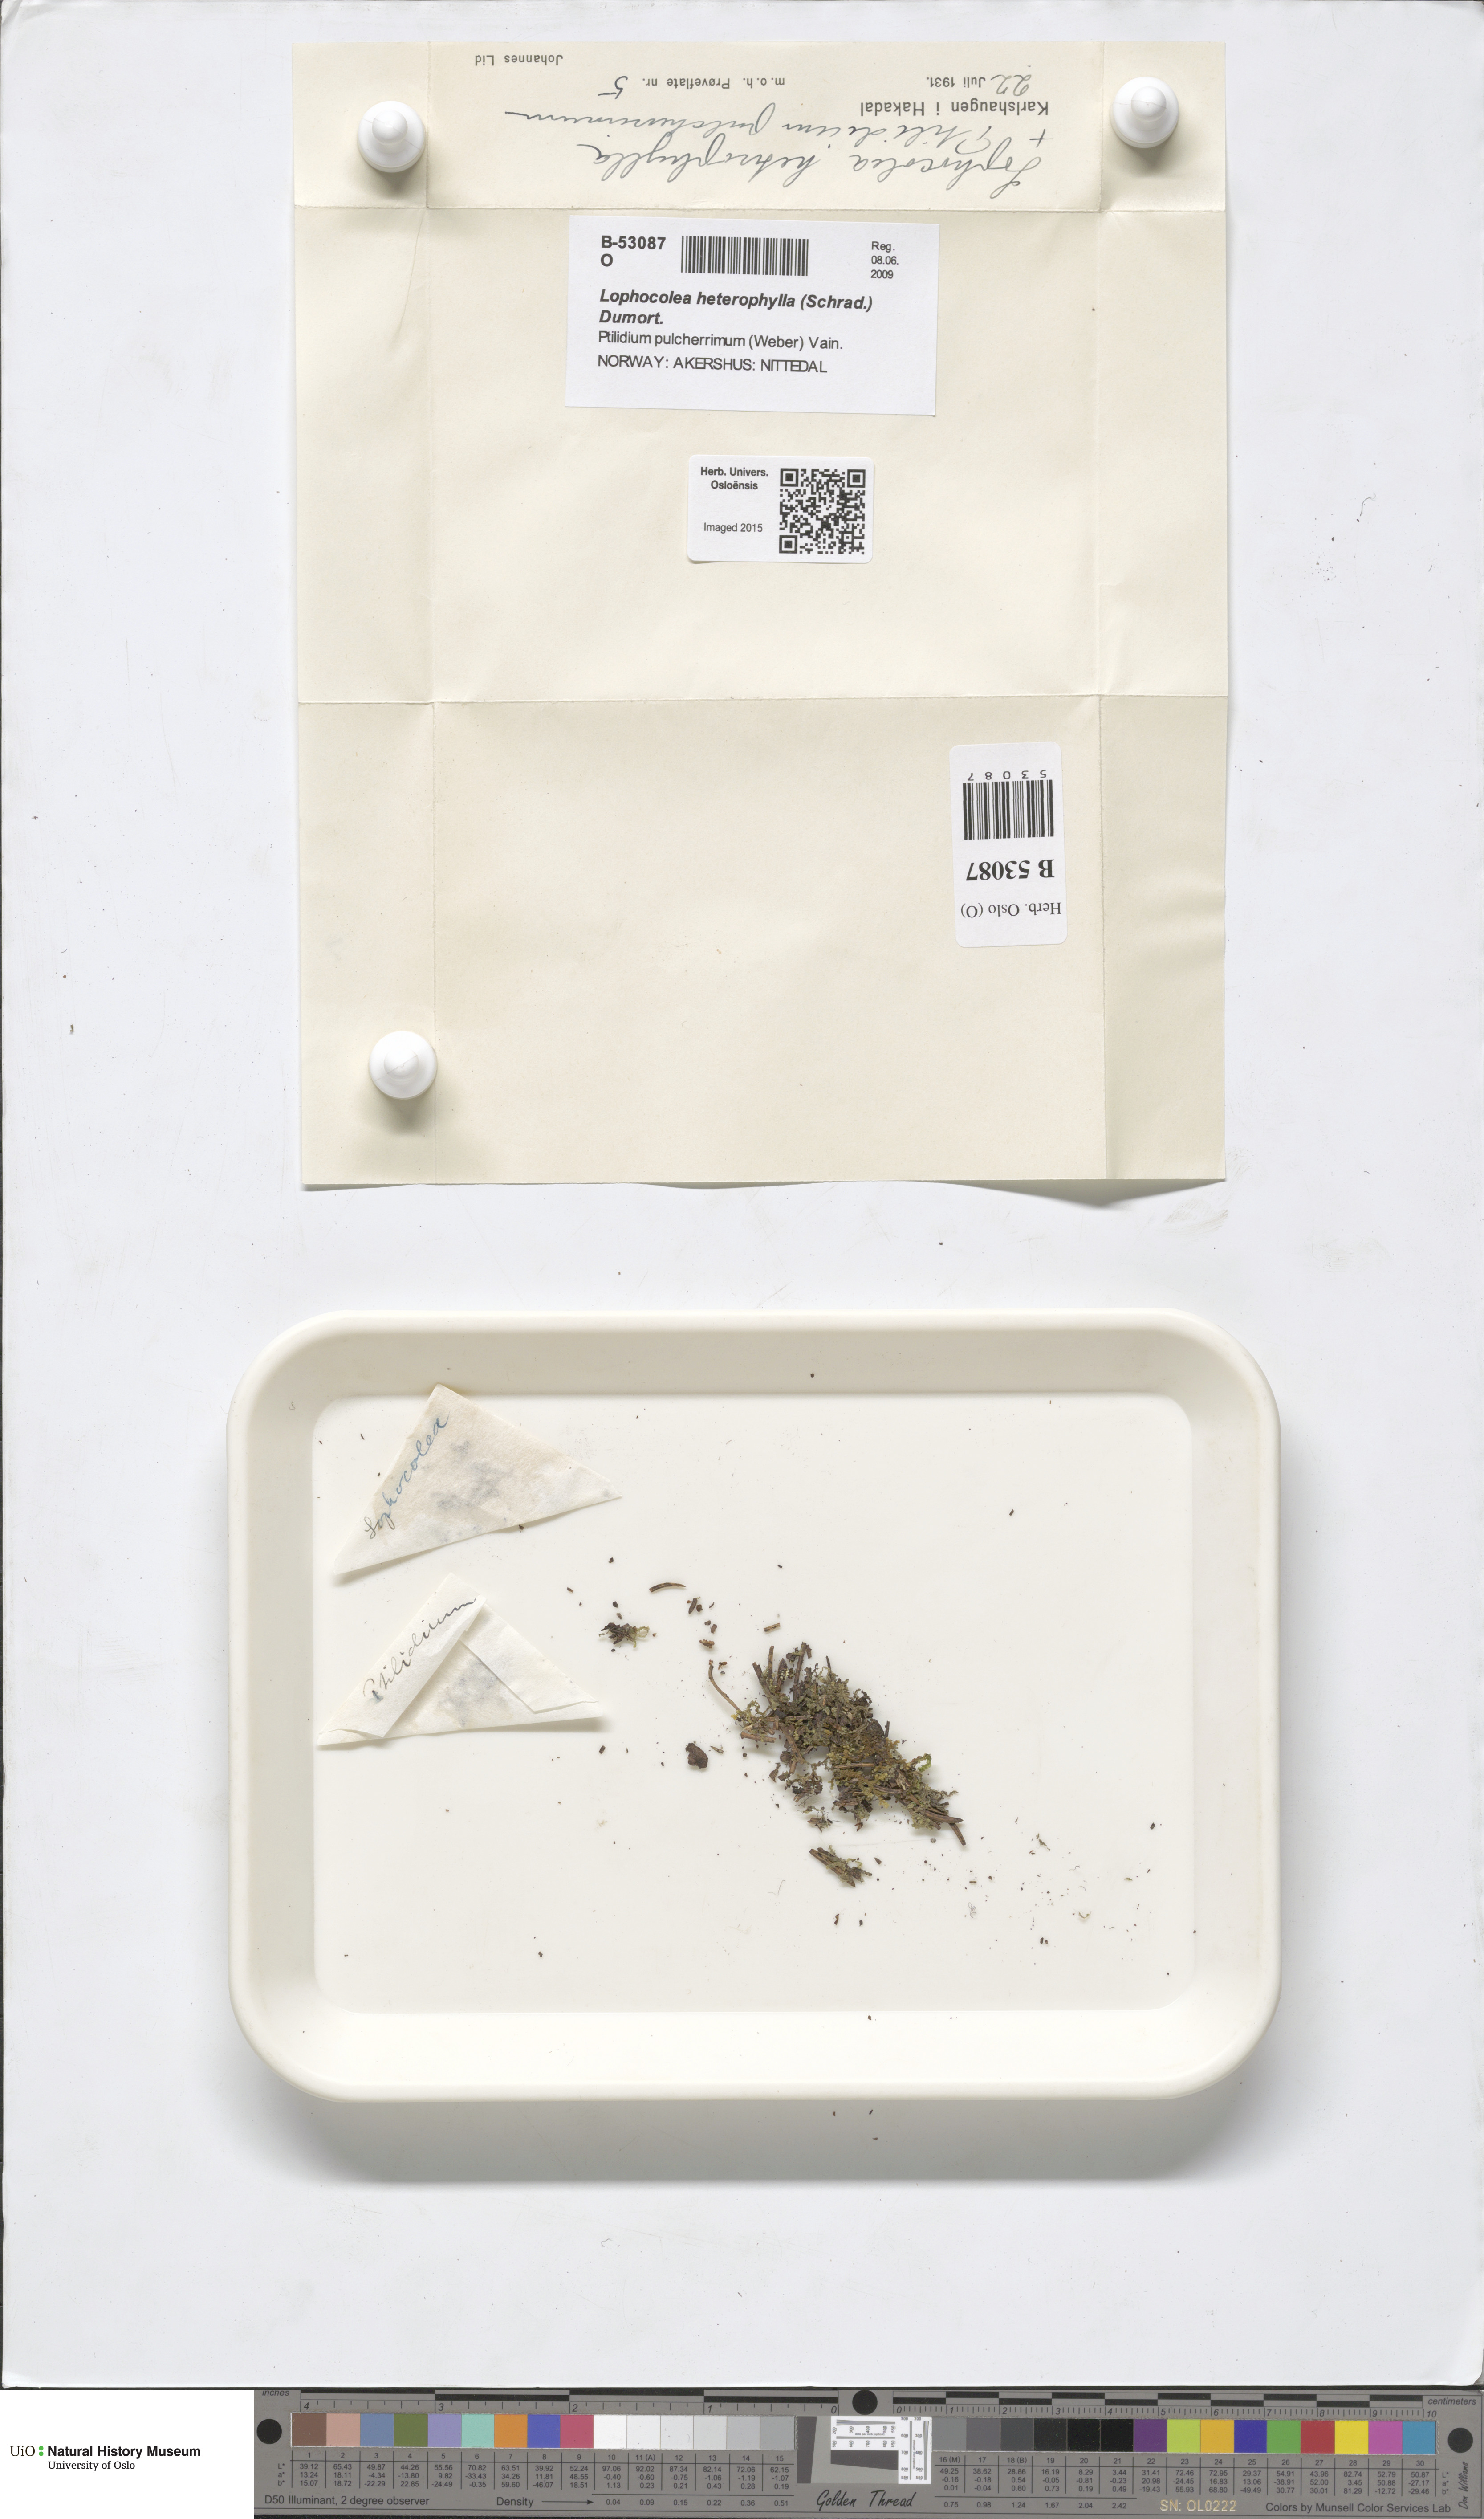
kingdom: Plantae
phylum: Marchantiophyta
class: Jungermanniopsida
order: Jungermanniales
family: Lophocoleaceae
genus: Lophocolea
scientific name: Lophocolea heterophylla
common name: Variable-leaved crestwort
